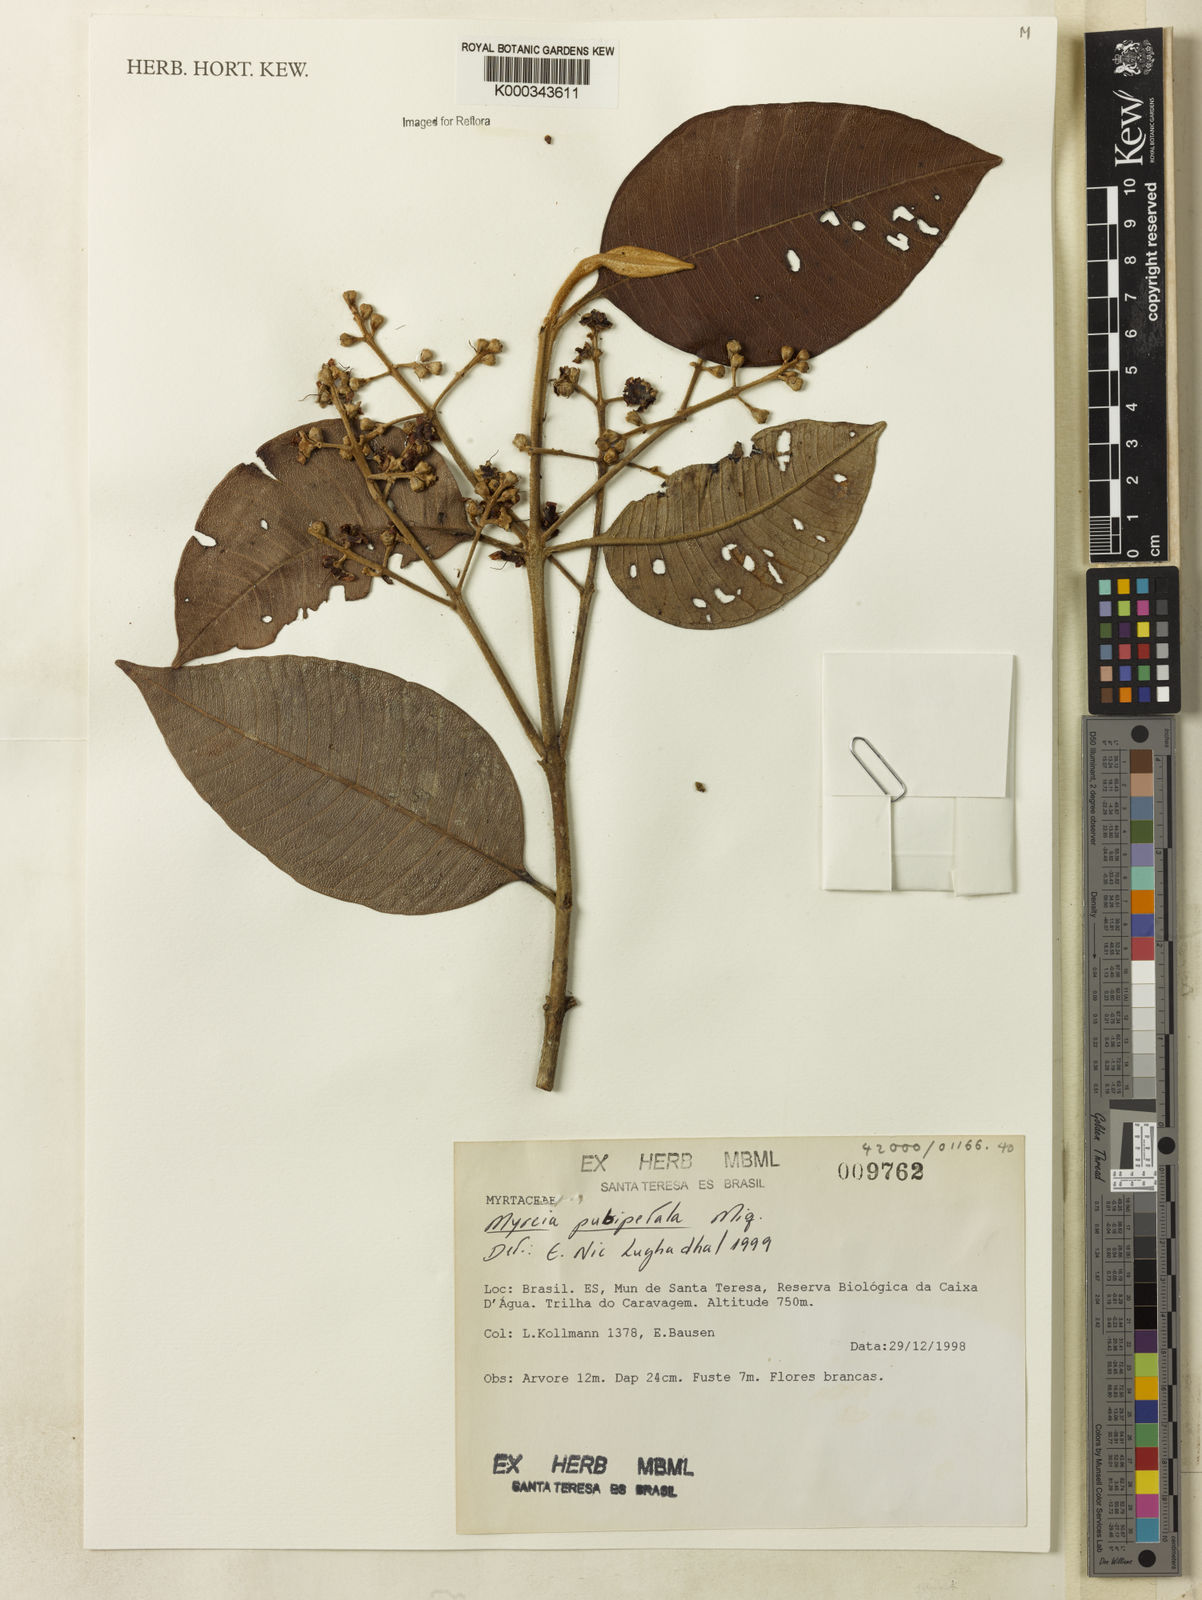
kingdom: Plantae
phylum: Tracheophyta
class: Magnoliopsida
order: Myrtales
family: Myrtaceae
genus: Myrcia
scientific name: Myrcia pubipetala
